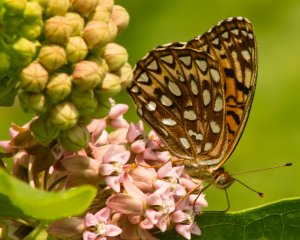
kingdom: Animalia
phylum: Arthropoda
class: Insecta
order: Lepidoptera
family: Nymphalidae
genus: Speyeria
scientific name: Speyeria atlantis
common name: Atlantis Fritillary
